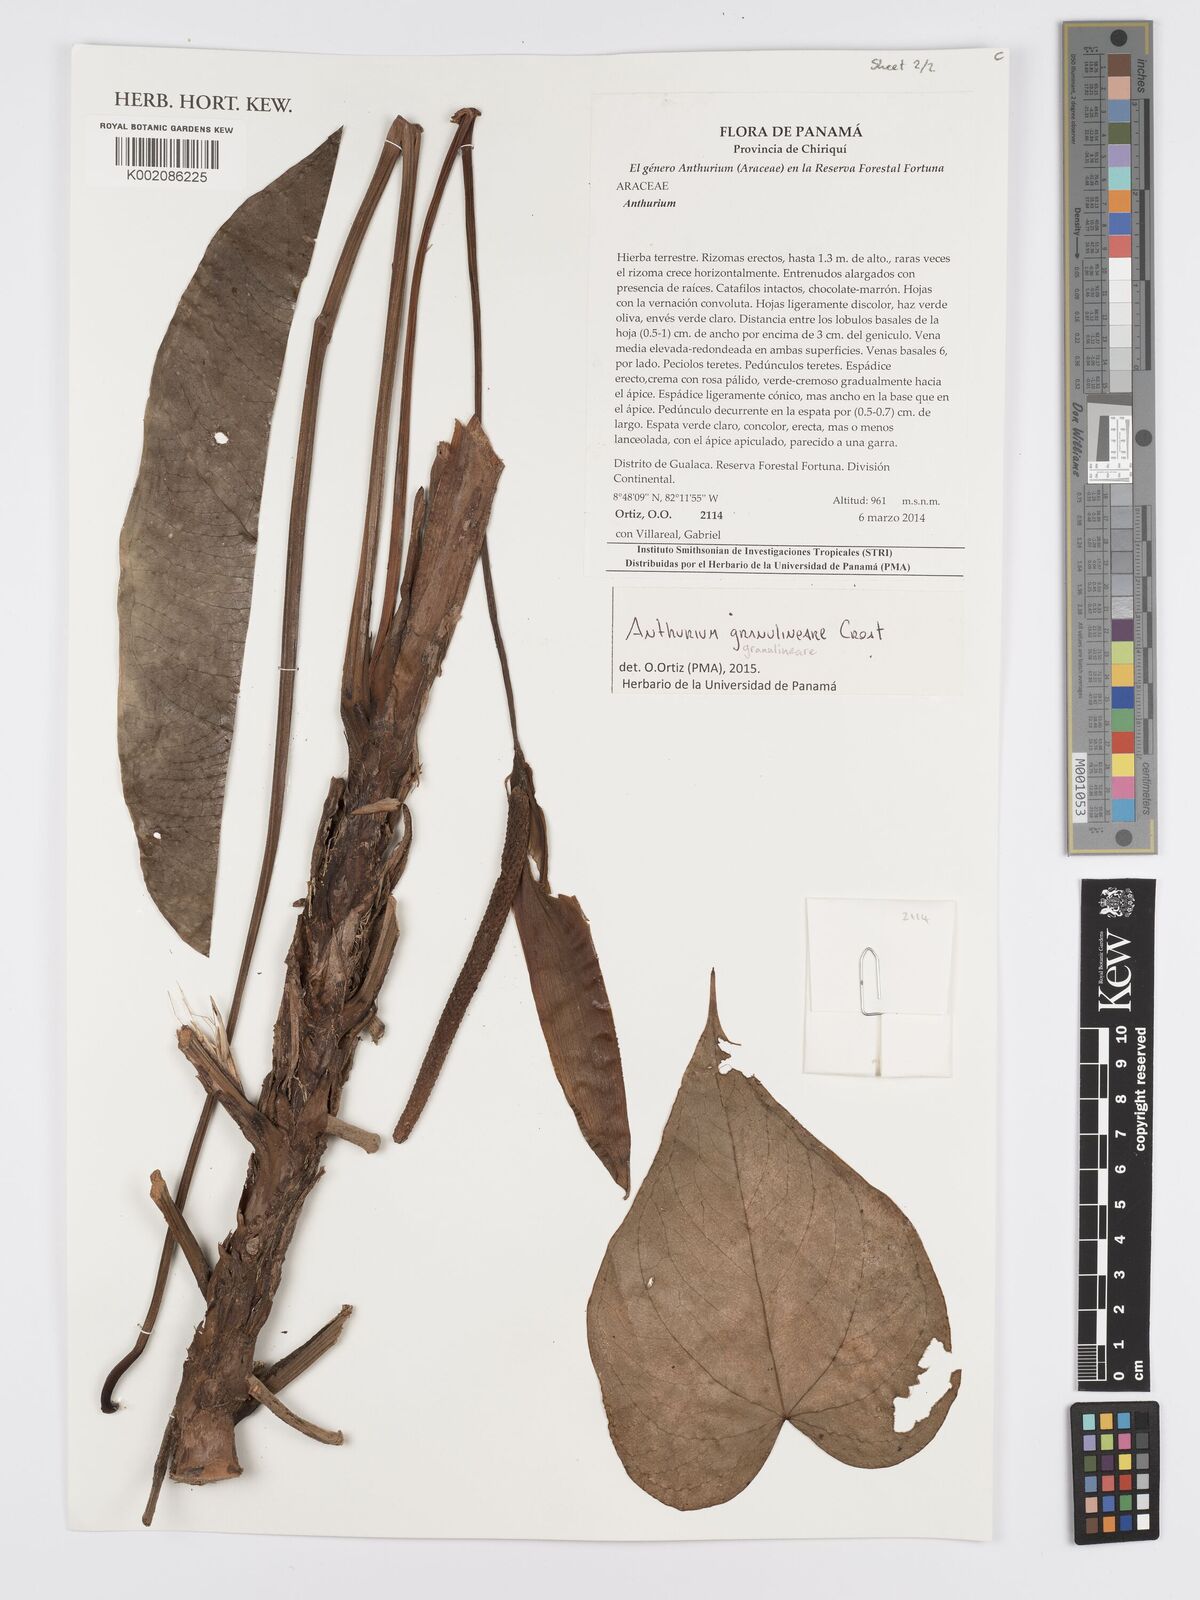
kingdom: Plantae
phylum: Tracheophyta
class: Liliopsida
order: Alismatales
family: Araceae
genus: Anthurium
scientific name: Anthurium granulineare
